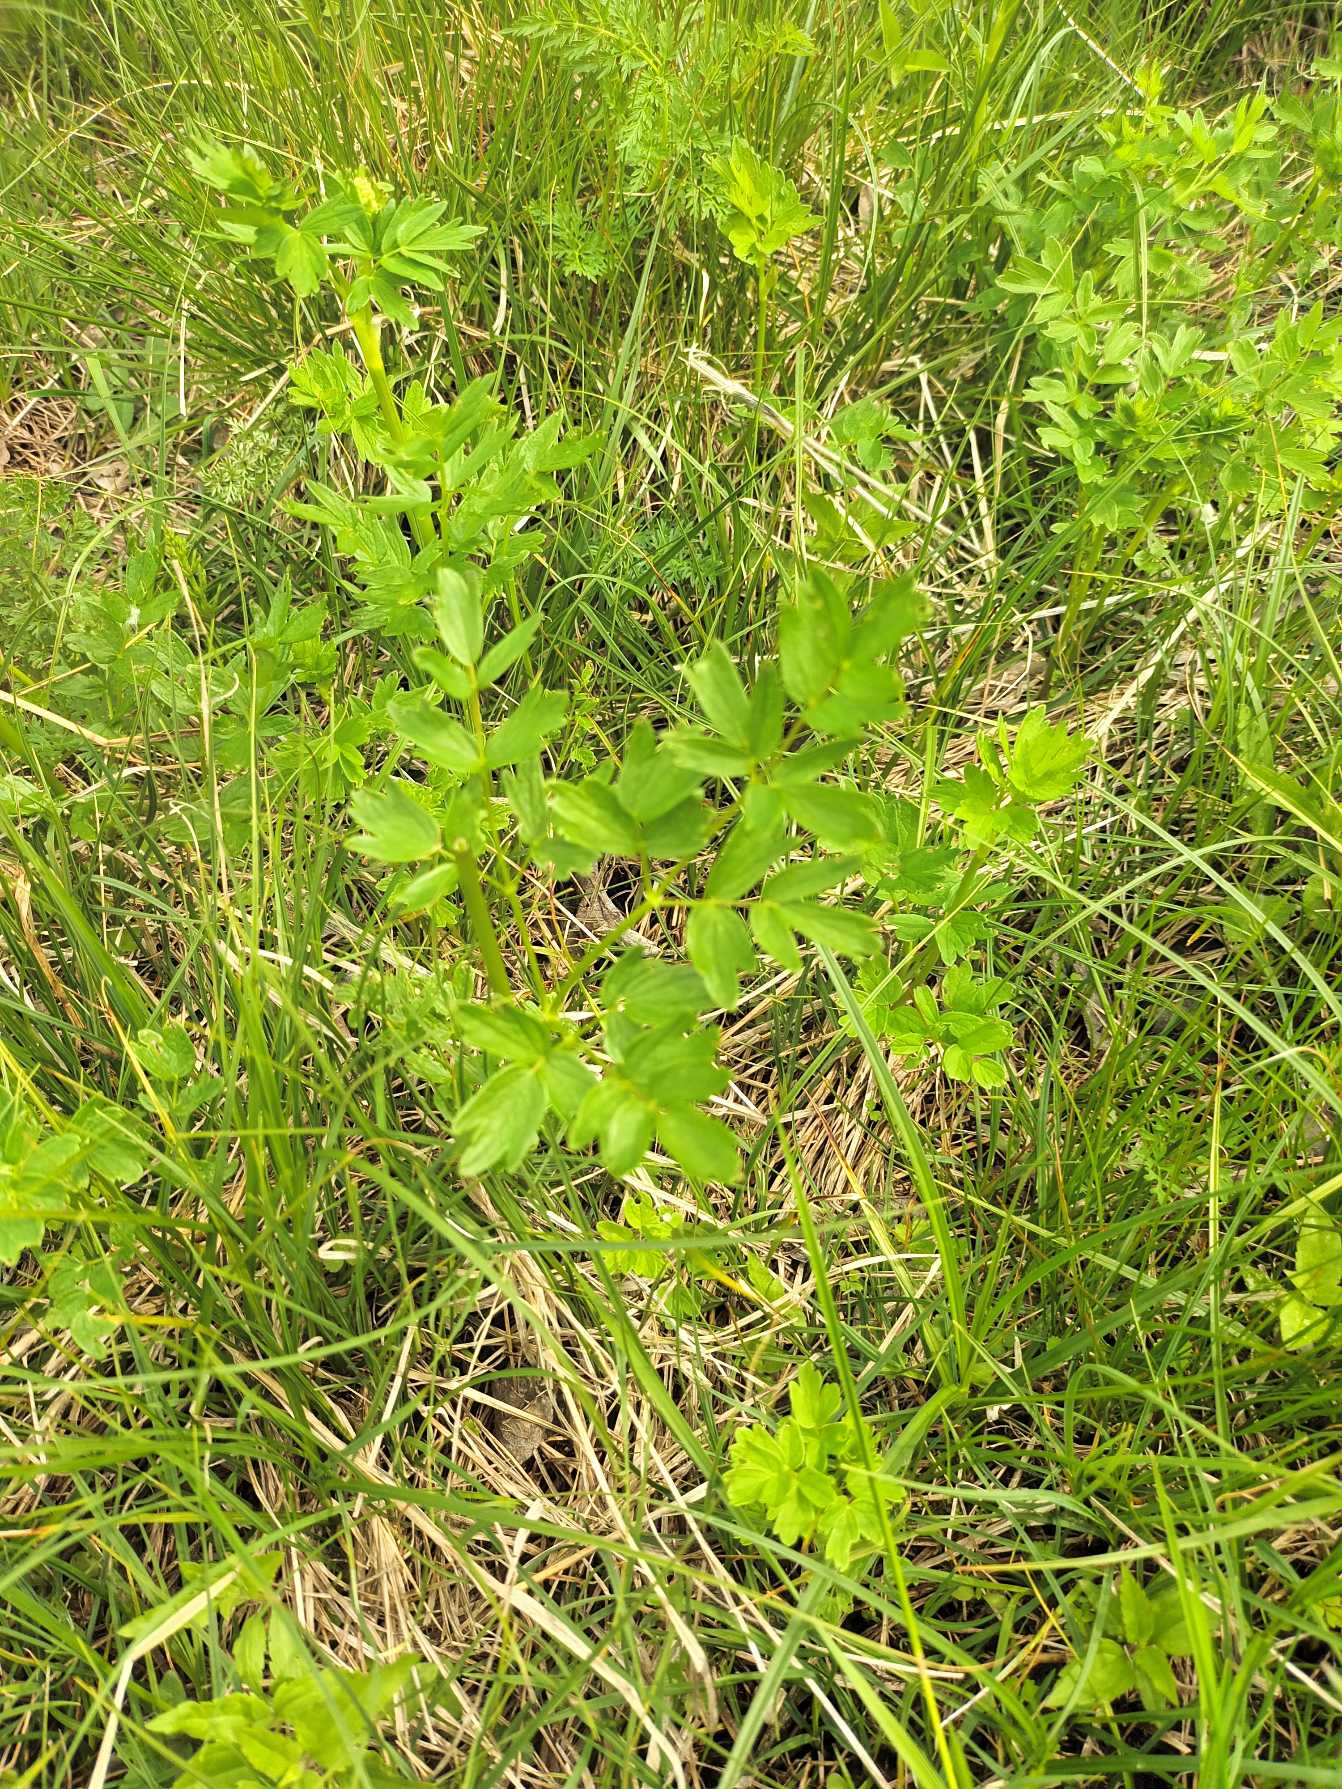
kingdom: Plantae
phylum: Tracheophyta
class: Magnoliopsida
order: Ranunculales
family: Ranunculaceae
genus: Thalictrum
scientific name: Thalictrum flavum
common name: Gul frøstjerne
